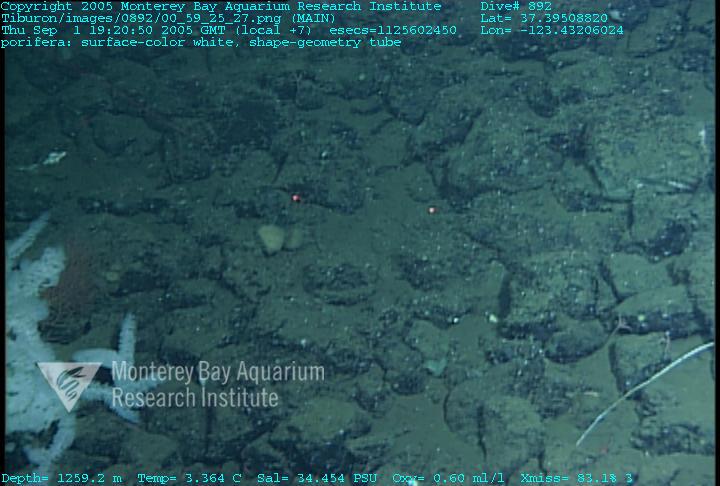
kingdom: Animalia
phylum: Porifera
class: Hexactinellida
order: Sceptrulophora
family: Farreidae
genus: Farrea
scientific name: Farrea truncata
